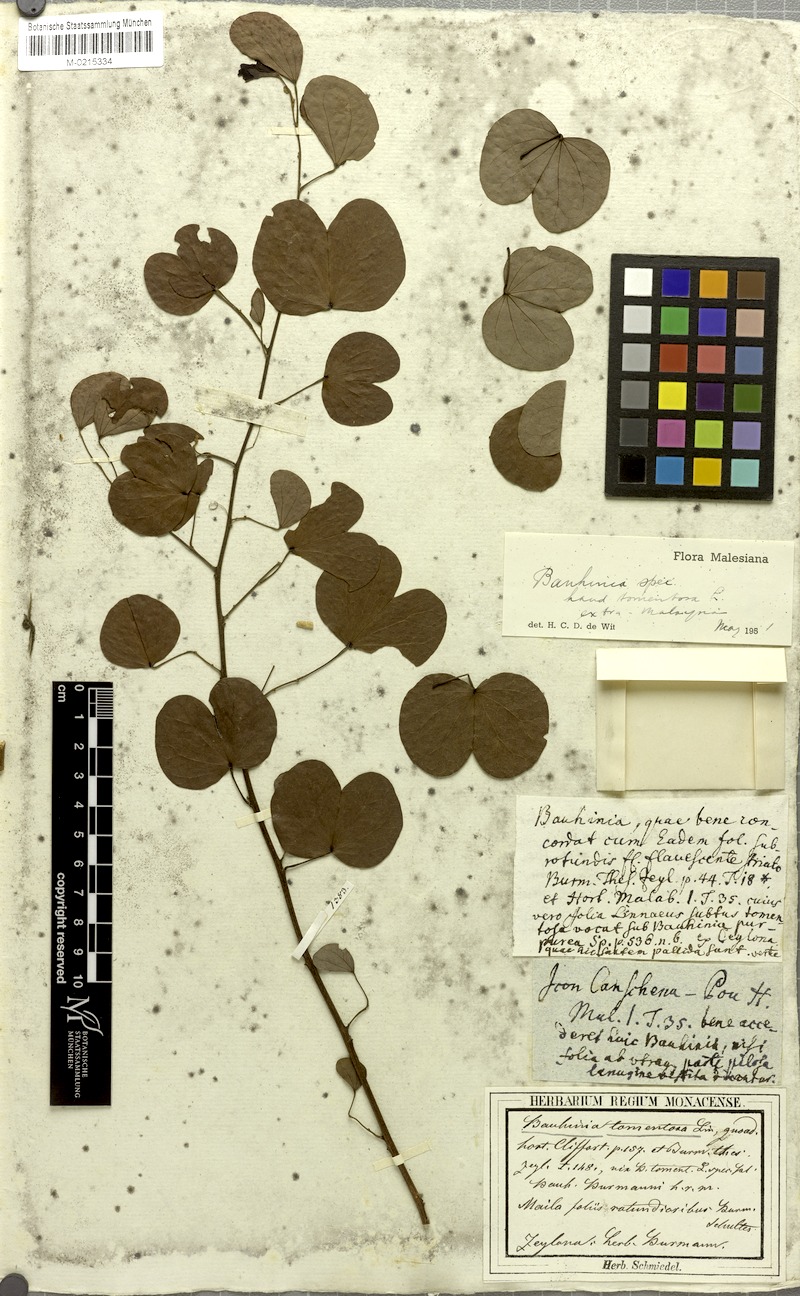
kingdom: Plantae
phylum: Tracheophyta
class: Magnoliopsida
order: Fabales
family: Fabaceae
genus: Bauhinia
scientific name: Bauhinia tomentosa
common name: Bell bauhinia
